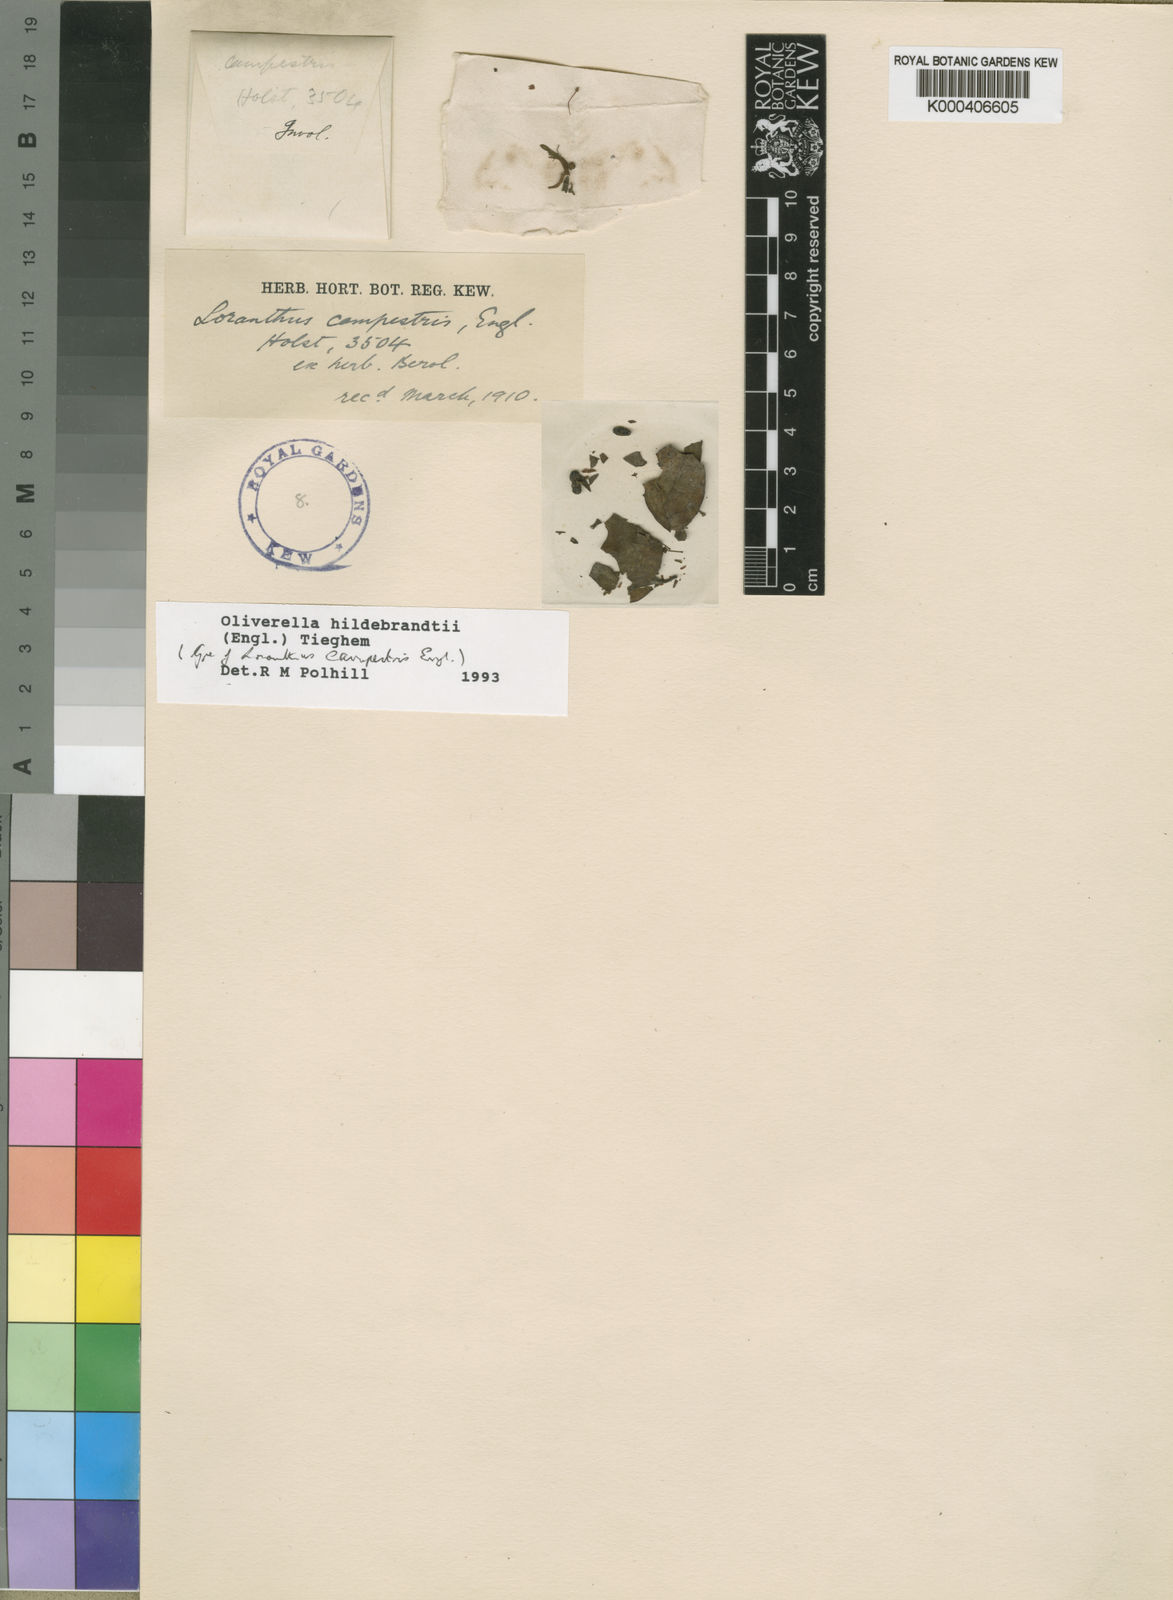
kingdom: Plantae
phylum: Tracheophyta
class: Magnoliopsida
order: Santalales
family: Loranthaceae
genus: Oliverella
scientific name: Oliverella hildebrandtii
